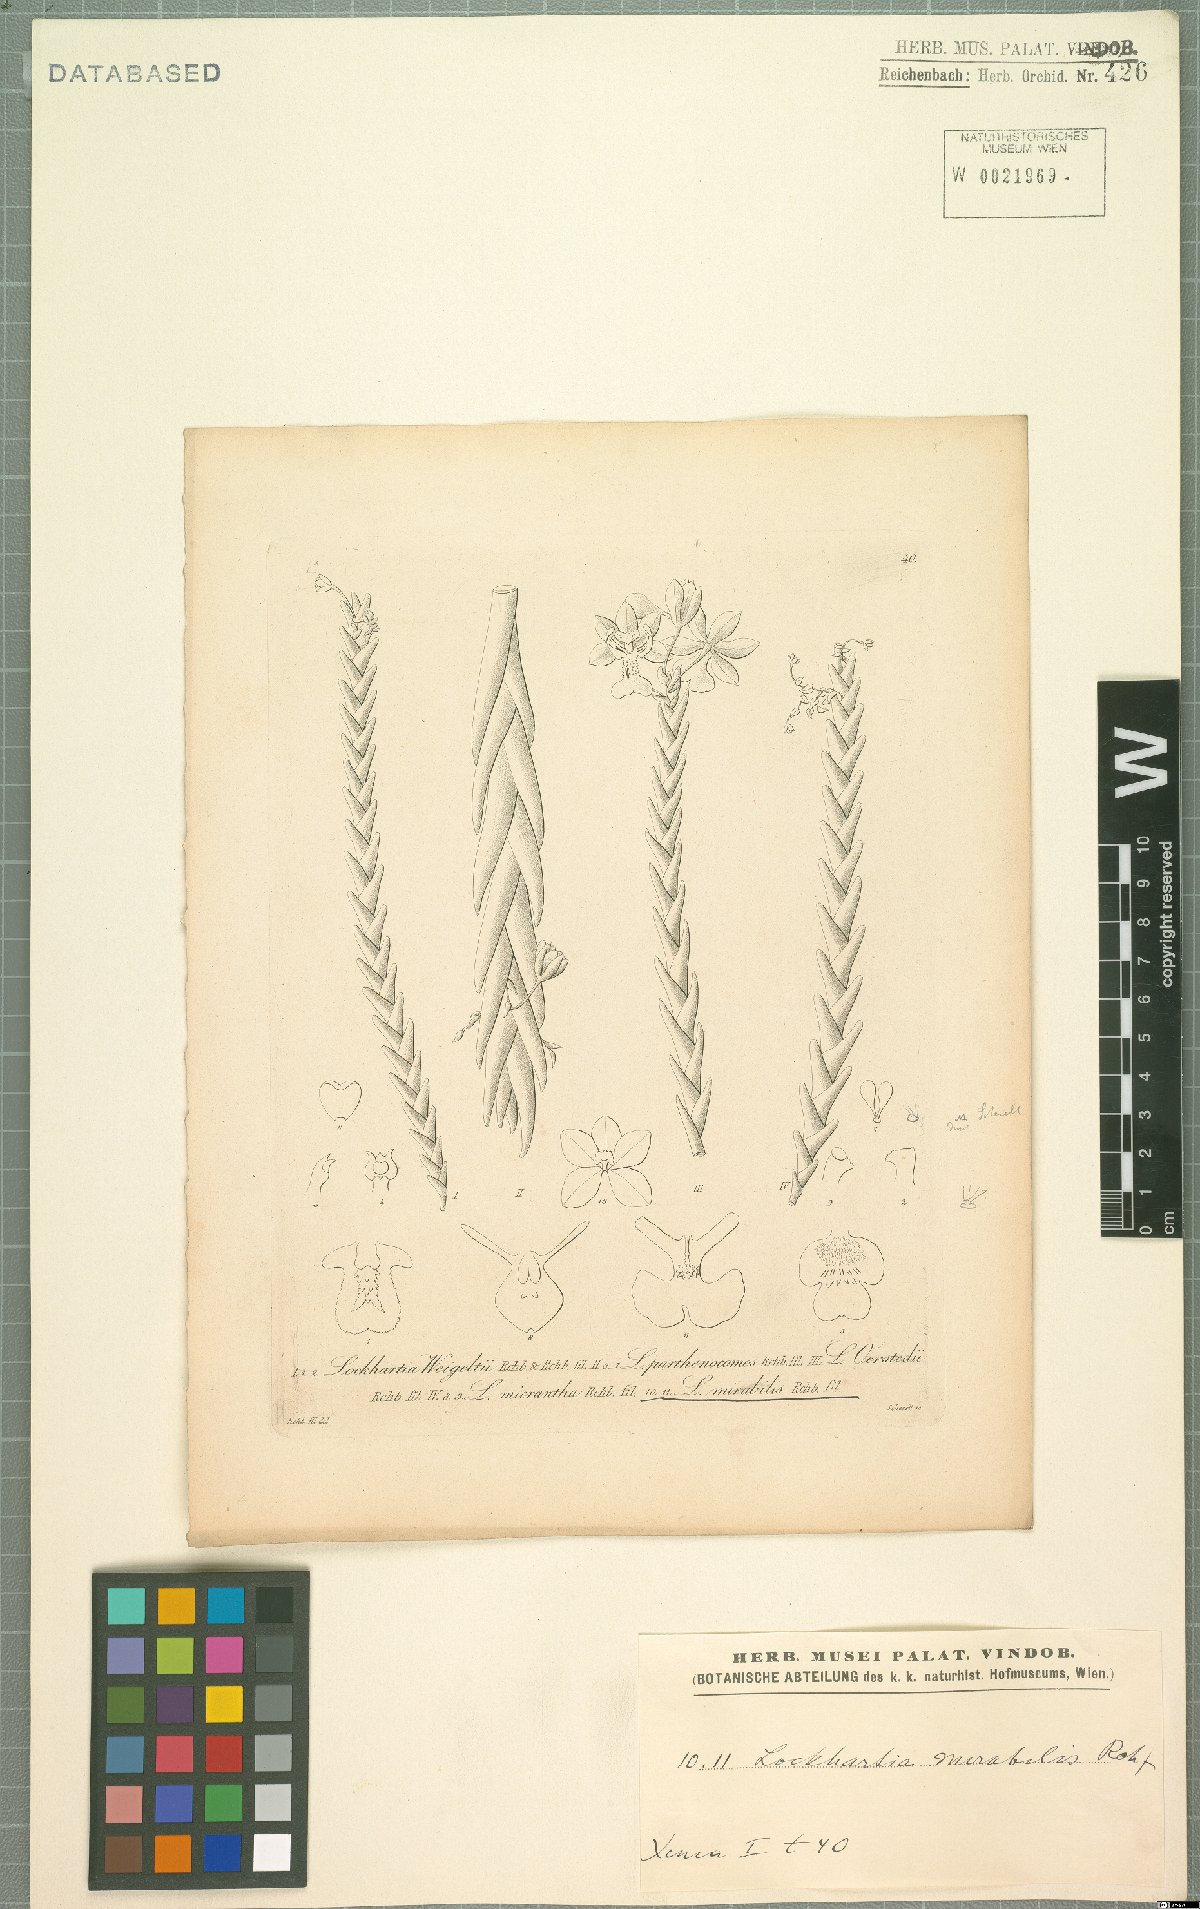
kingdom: Plantae
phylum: Tracheophyta
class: Liliopsida
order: Asparagales
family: Orchidaceae
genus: Lockhartia
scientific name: Lockhartia oerstedii
